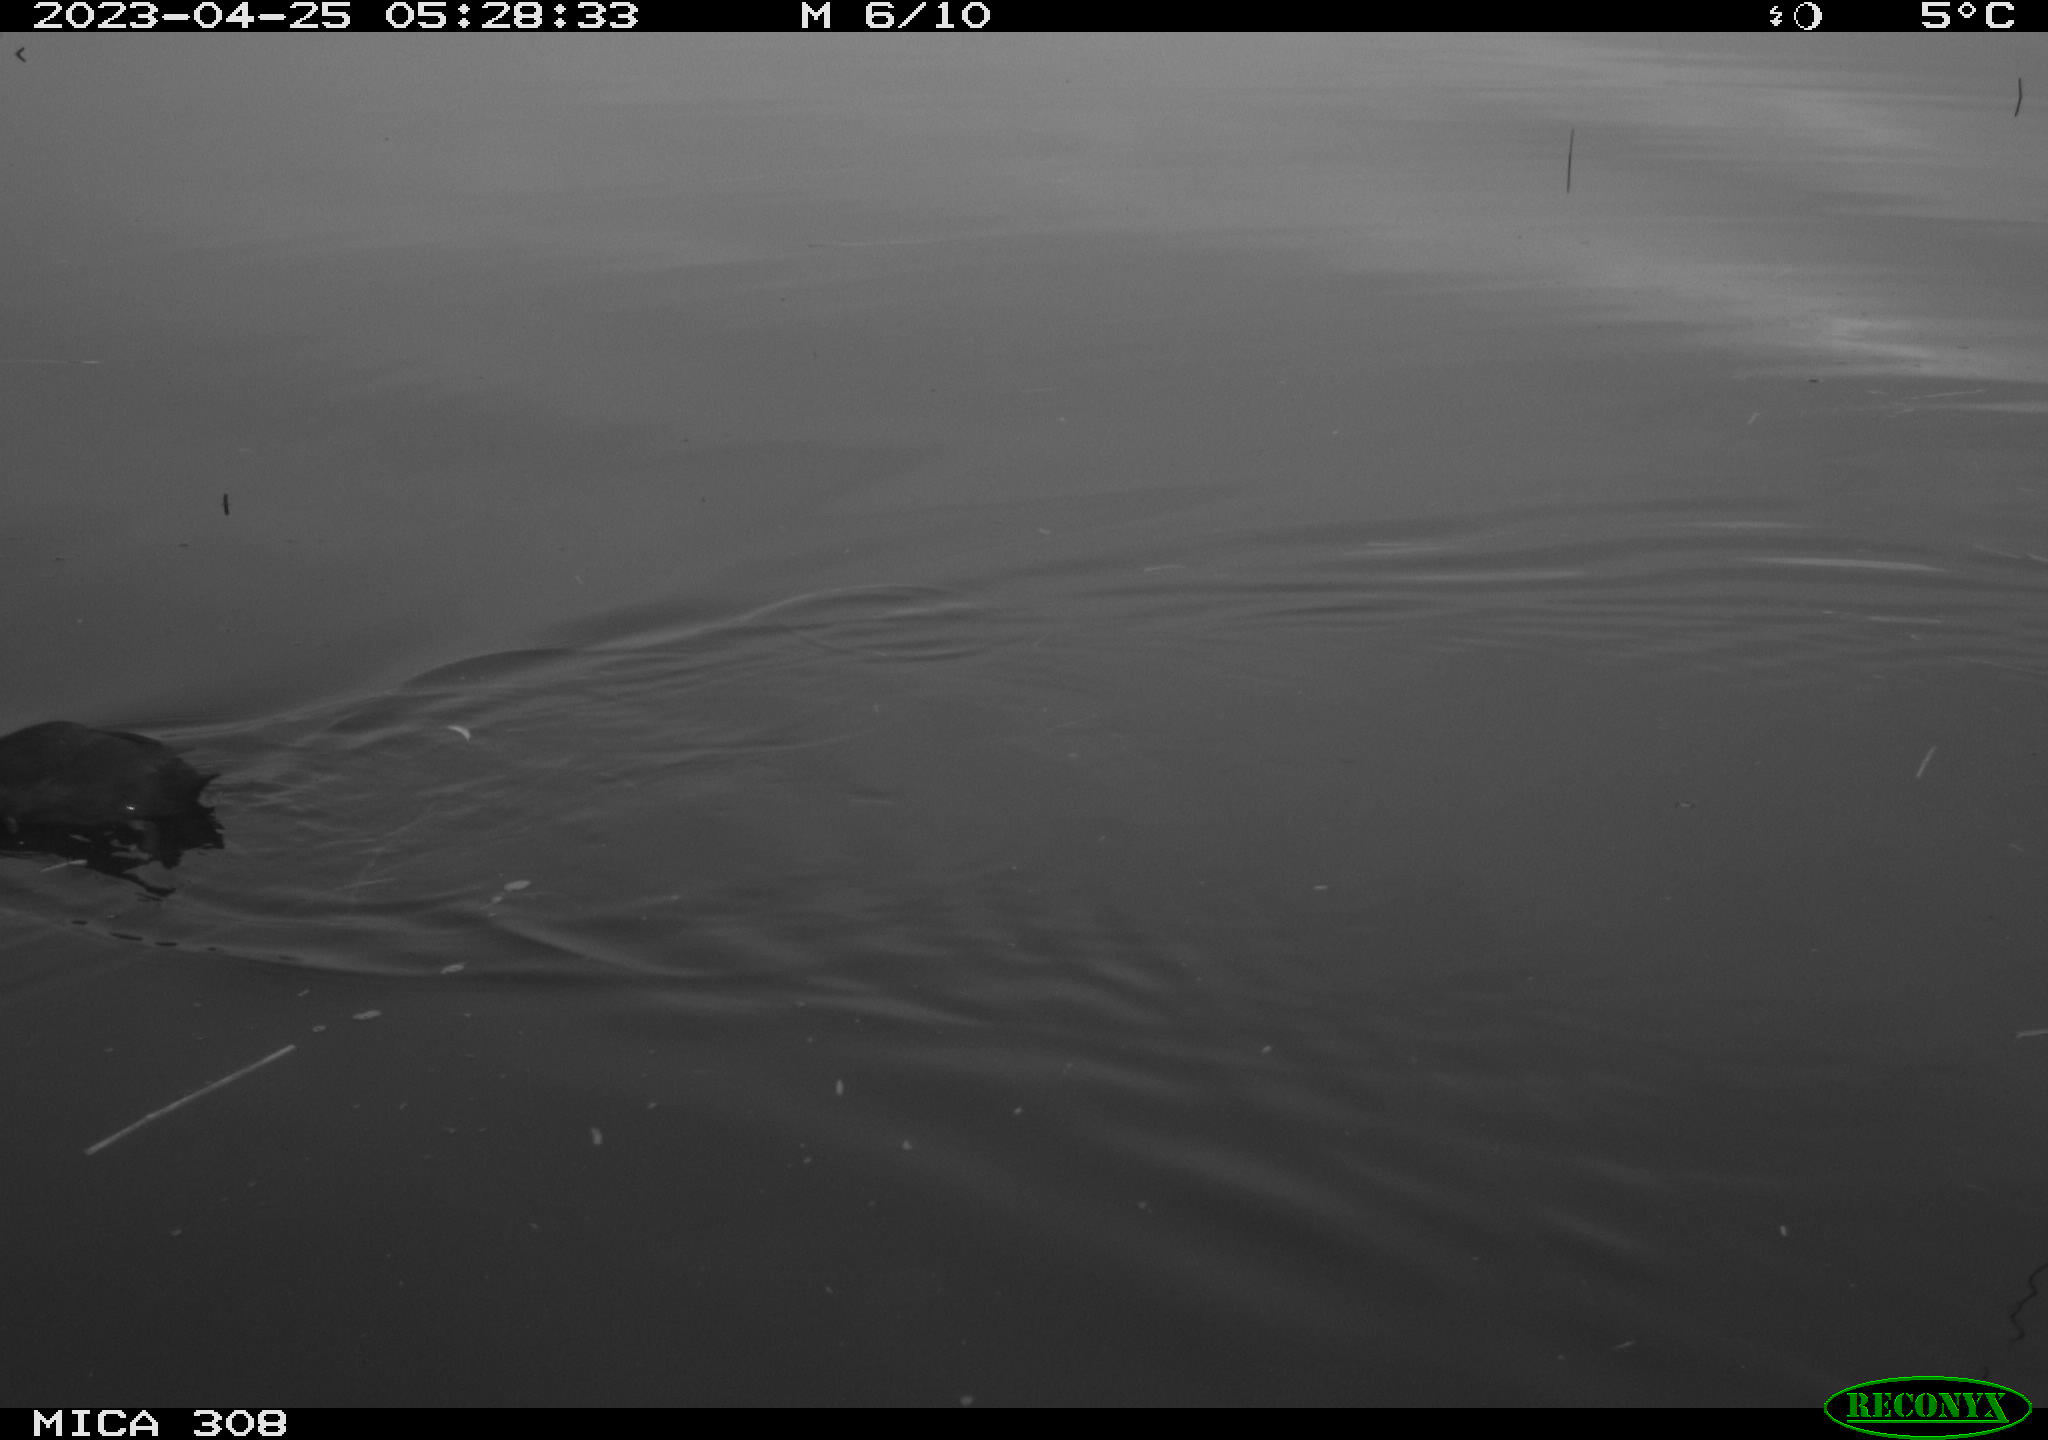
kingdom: Animalia
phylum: Chordata
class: Aves
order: Gruiformes
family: Rallidae
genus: Fulica
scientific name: Fulica atra
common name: Eurasian coot
